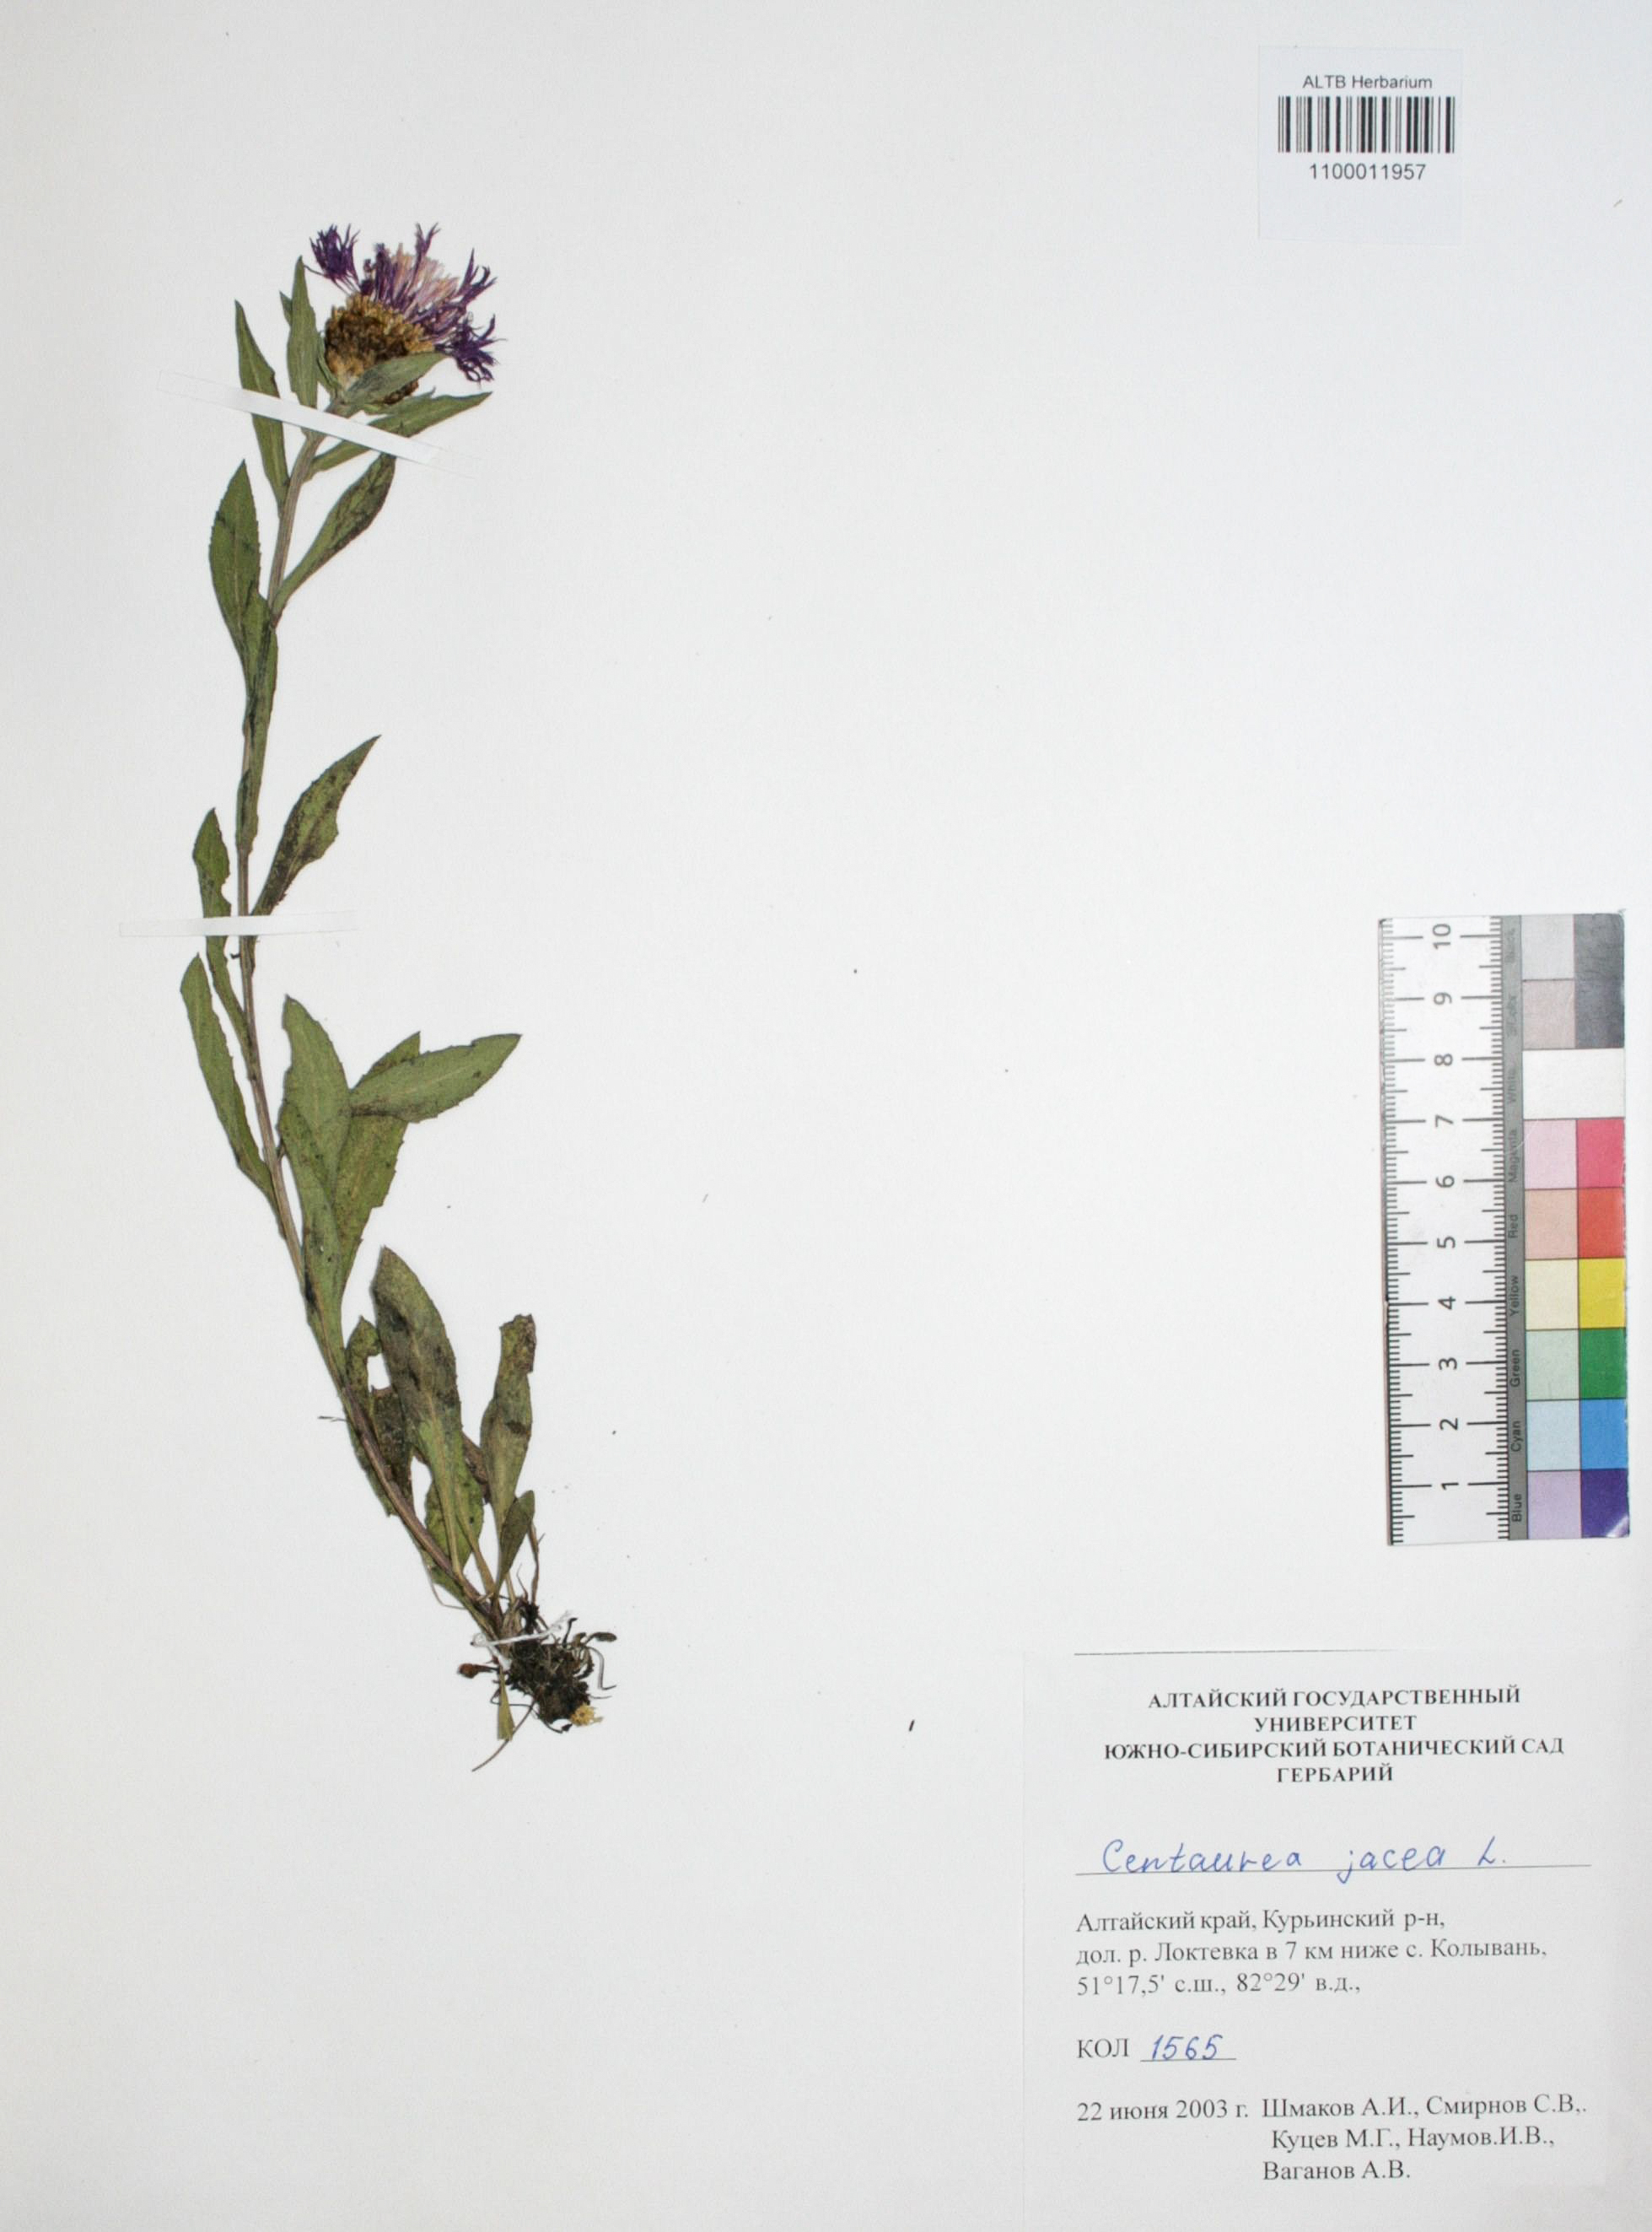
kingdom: Plantae
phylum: Tracheophyta
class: Magnoliopsida
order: Asterales
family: Asteraceae
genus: Centaurea
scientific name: Centaurea jacea
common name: Brown knapweed
